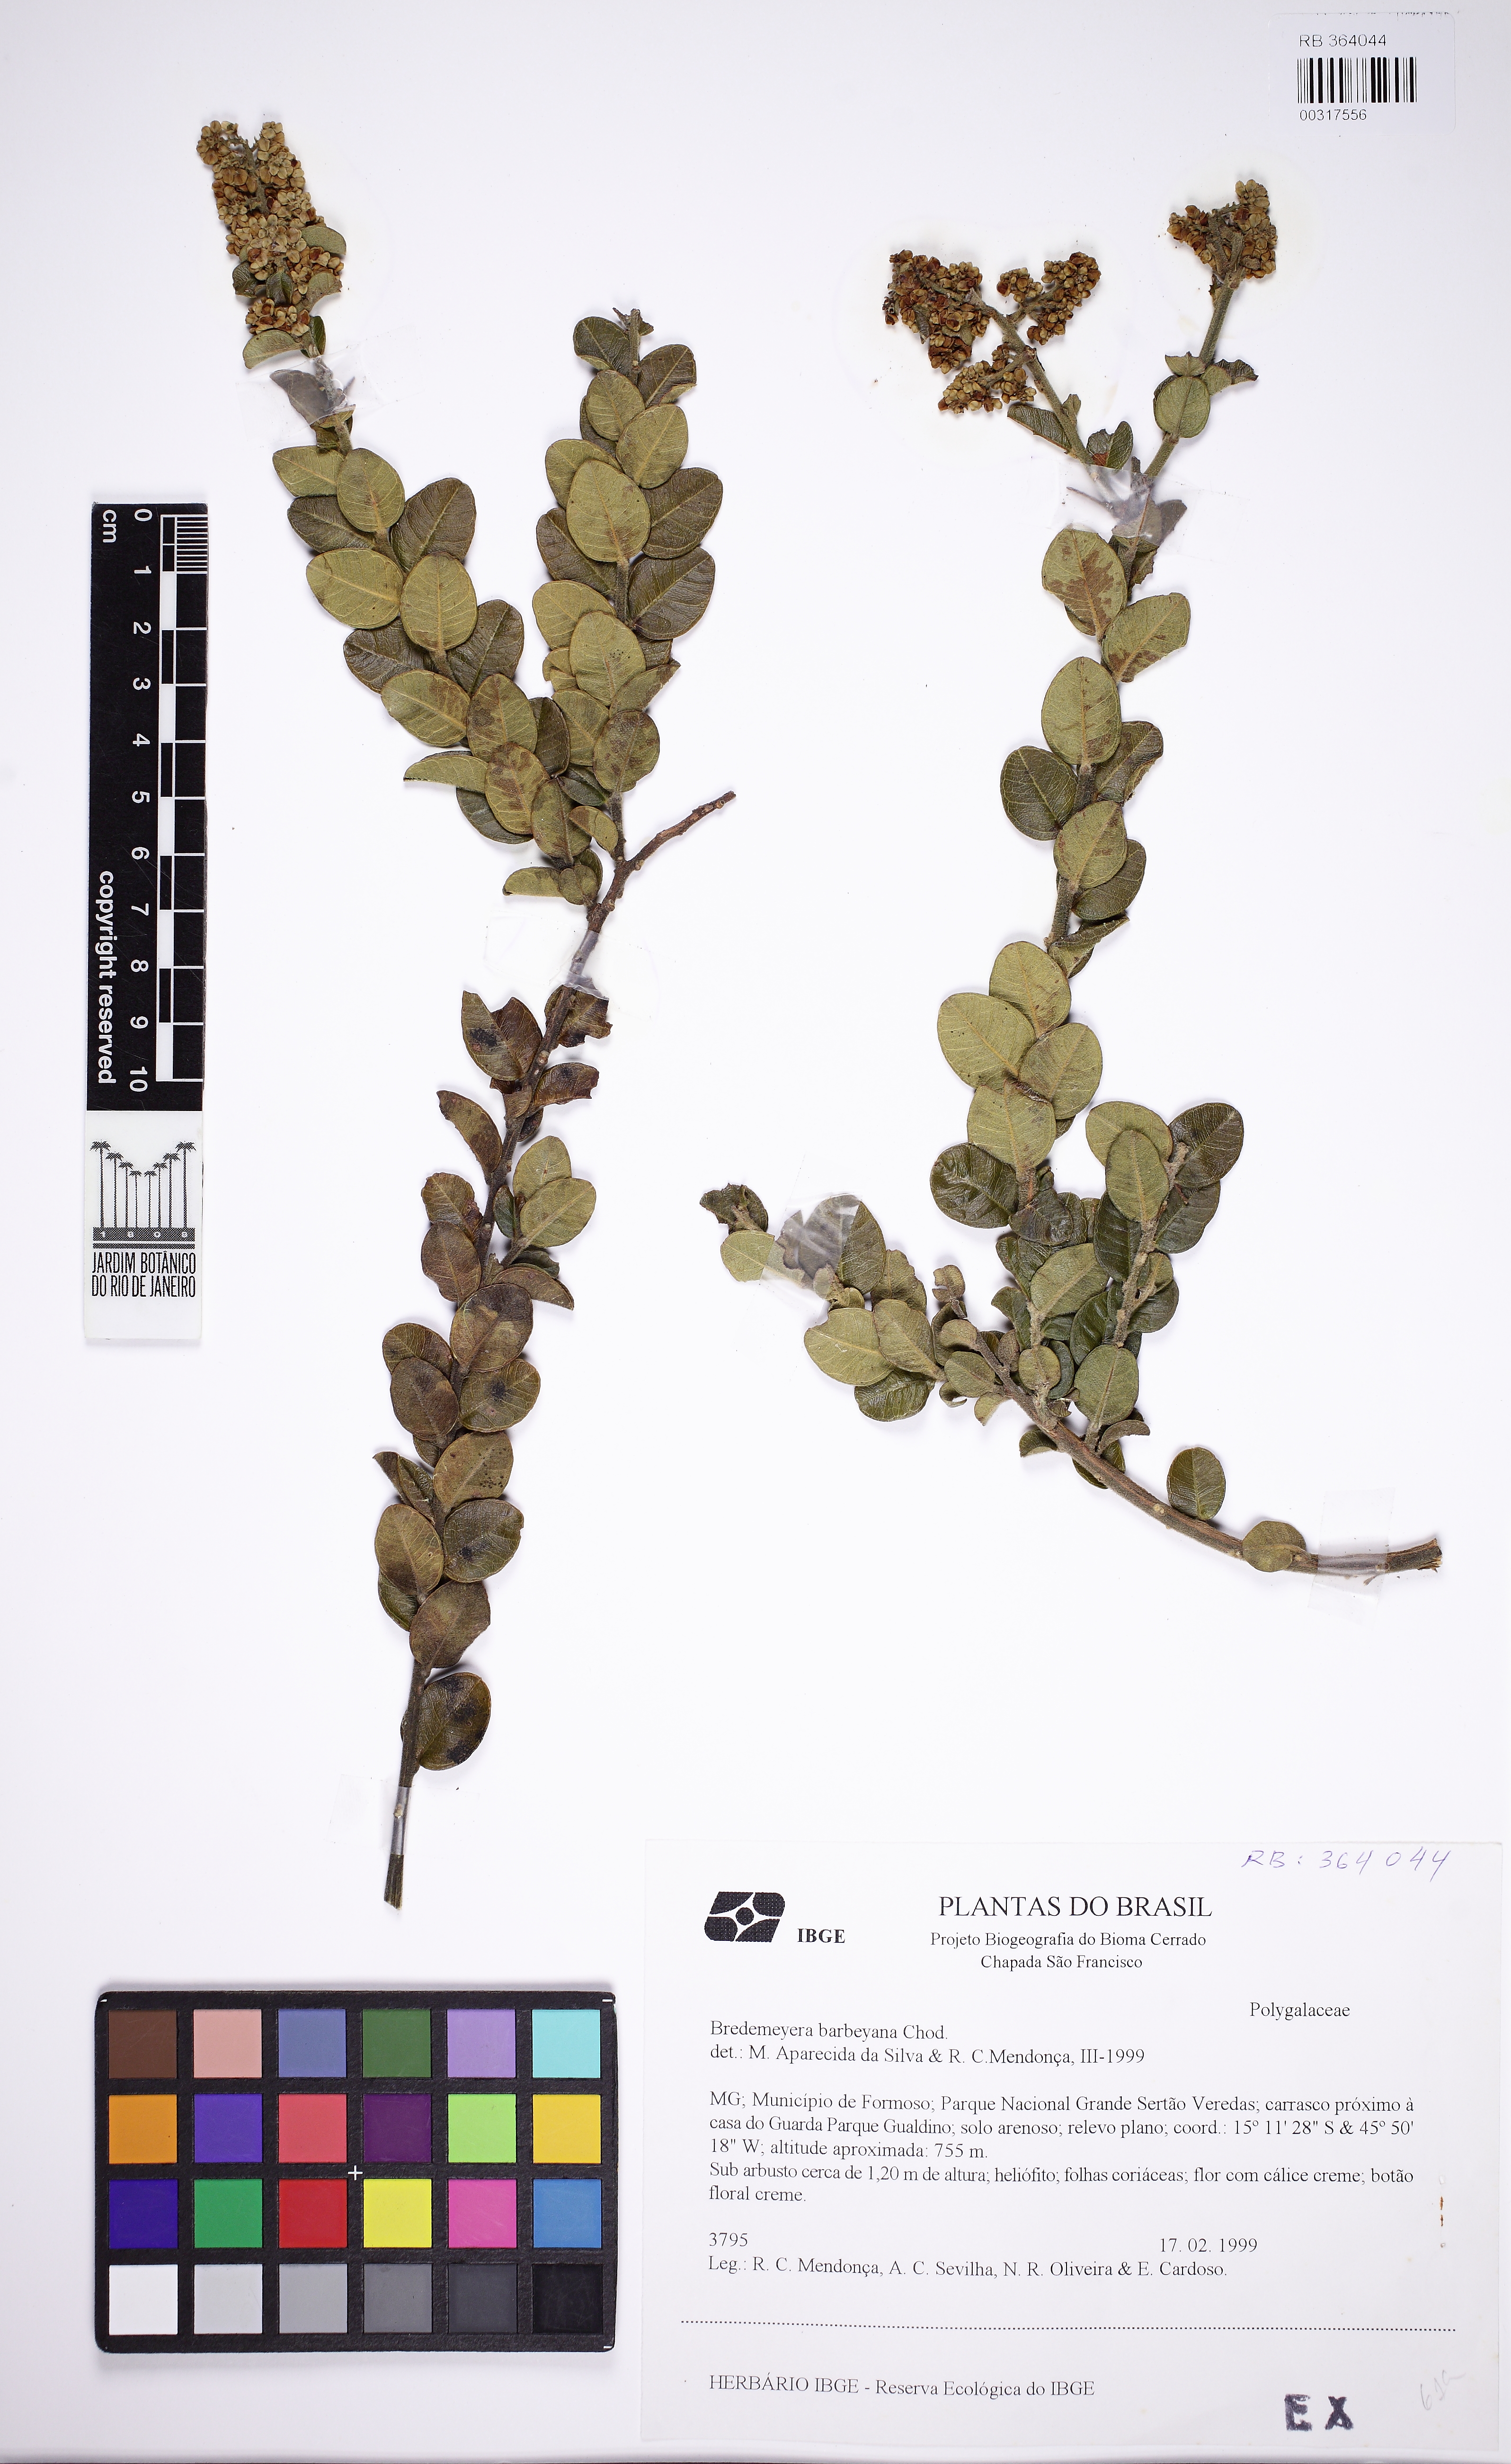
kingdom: Plantae
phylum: Tracheophyta
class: Magnoliopsida
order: Fabales
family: Polygalaceae
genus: Bredemeyera
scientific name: Bredemeyera barbeyana
